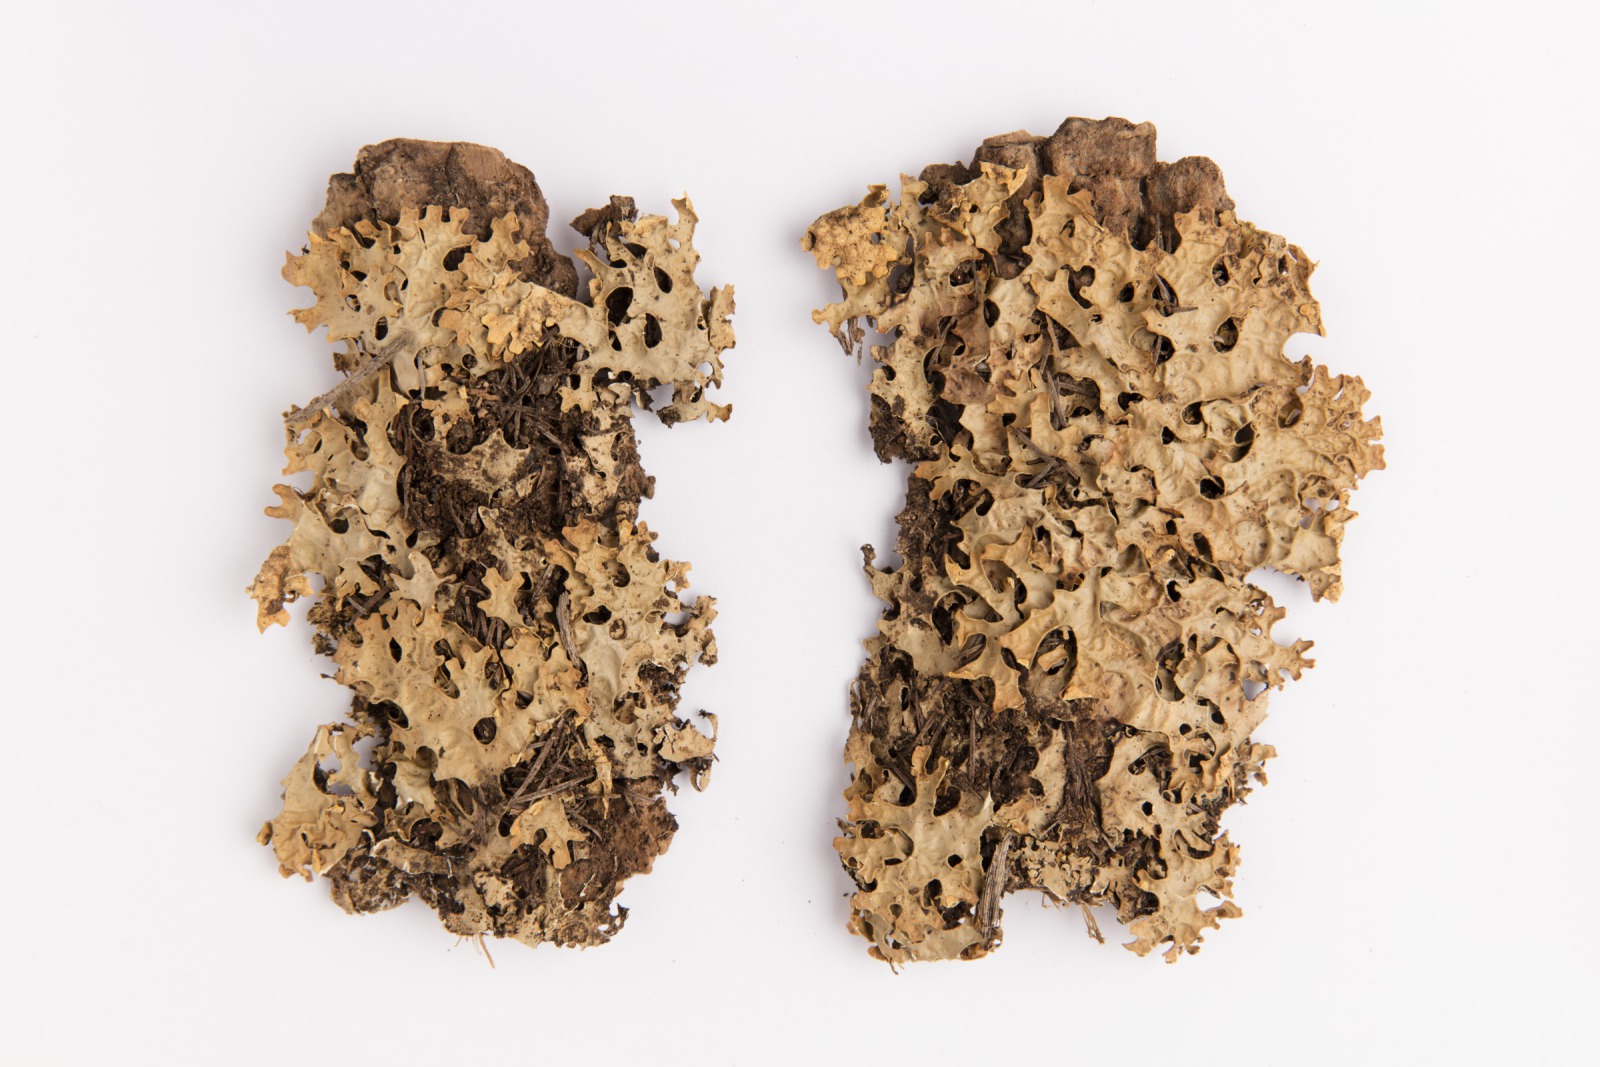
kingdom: Fungi
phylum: Ascomycota
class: Lecanoromycetes
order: Peltigerales
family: Lobariaceae
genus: Pseudocyphellaria
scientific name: Pseudocyphellaria carpoloma
